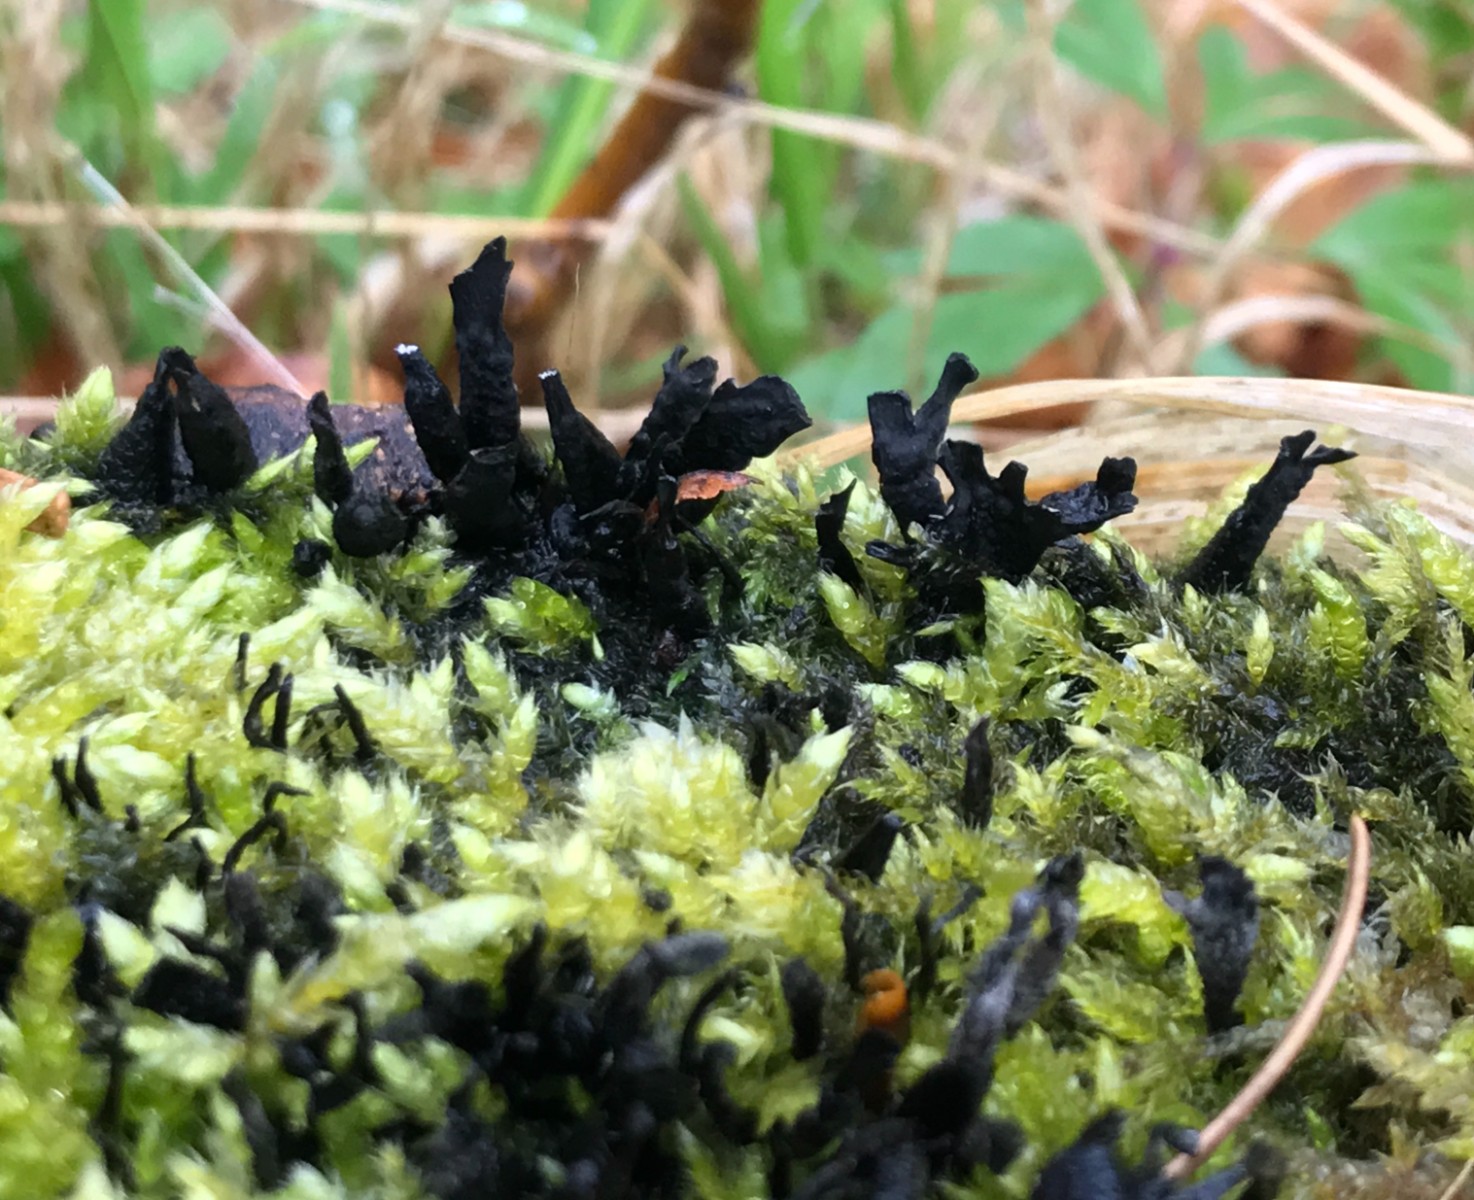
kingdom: Fungi
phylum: Ascomycota
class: Sordariomycetes
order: Xylariales
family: Xylariaceae
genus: Xylaria
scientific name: Xylaria hypoxylon
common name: grenet stødsvamp
